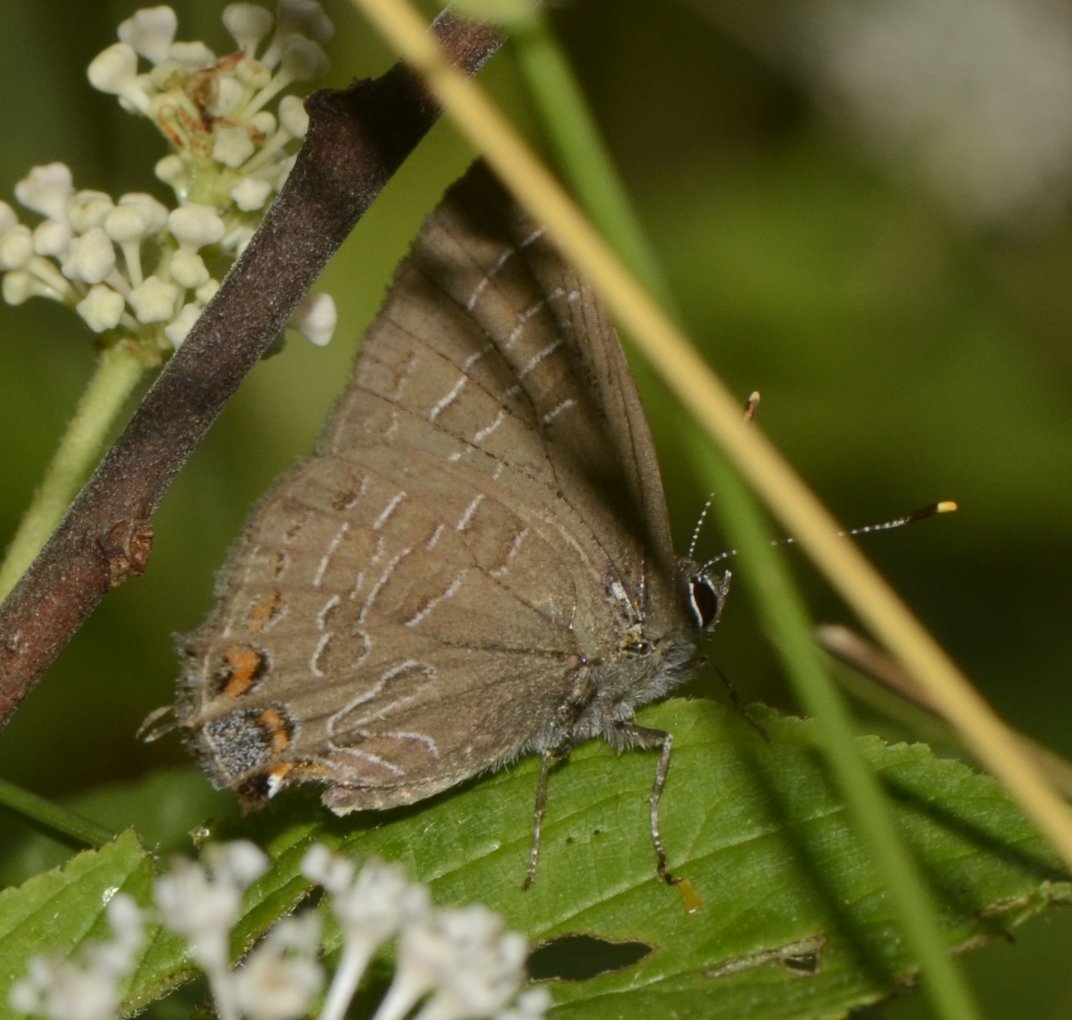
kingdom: Animalia
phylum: Arthropoda
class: Insecta
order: Lepidoptera
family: Lycaenidae
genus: Satyrium
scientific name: Satyrium liparops
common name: Striped Hairstreak
